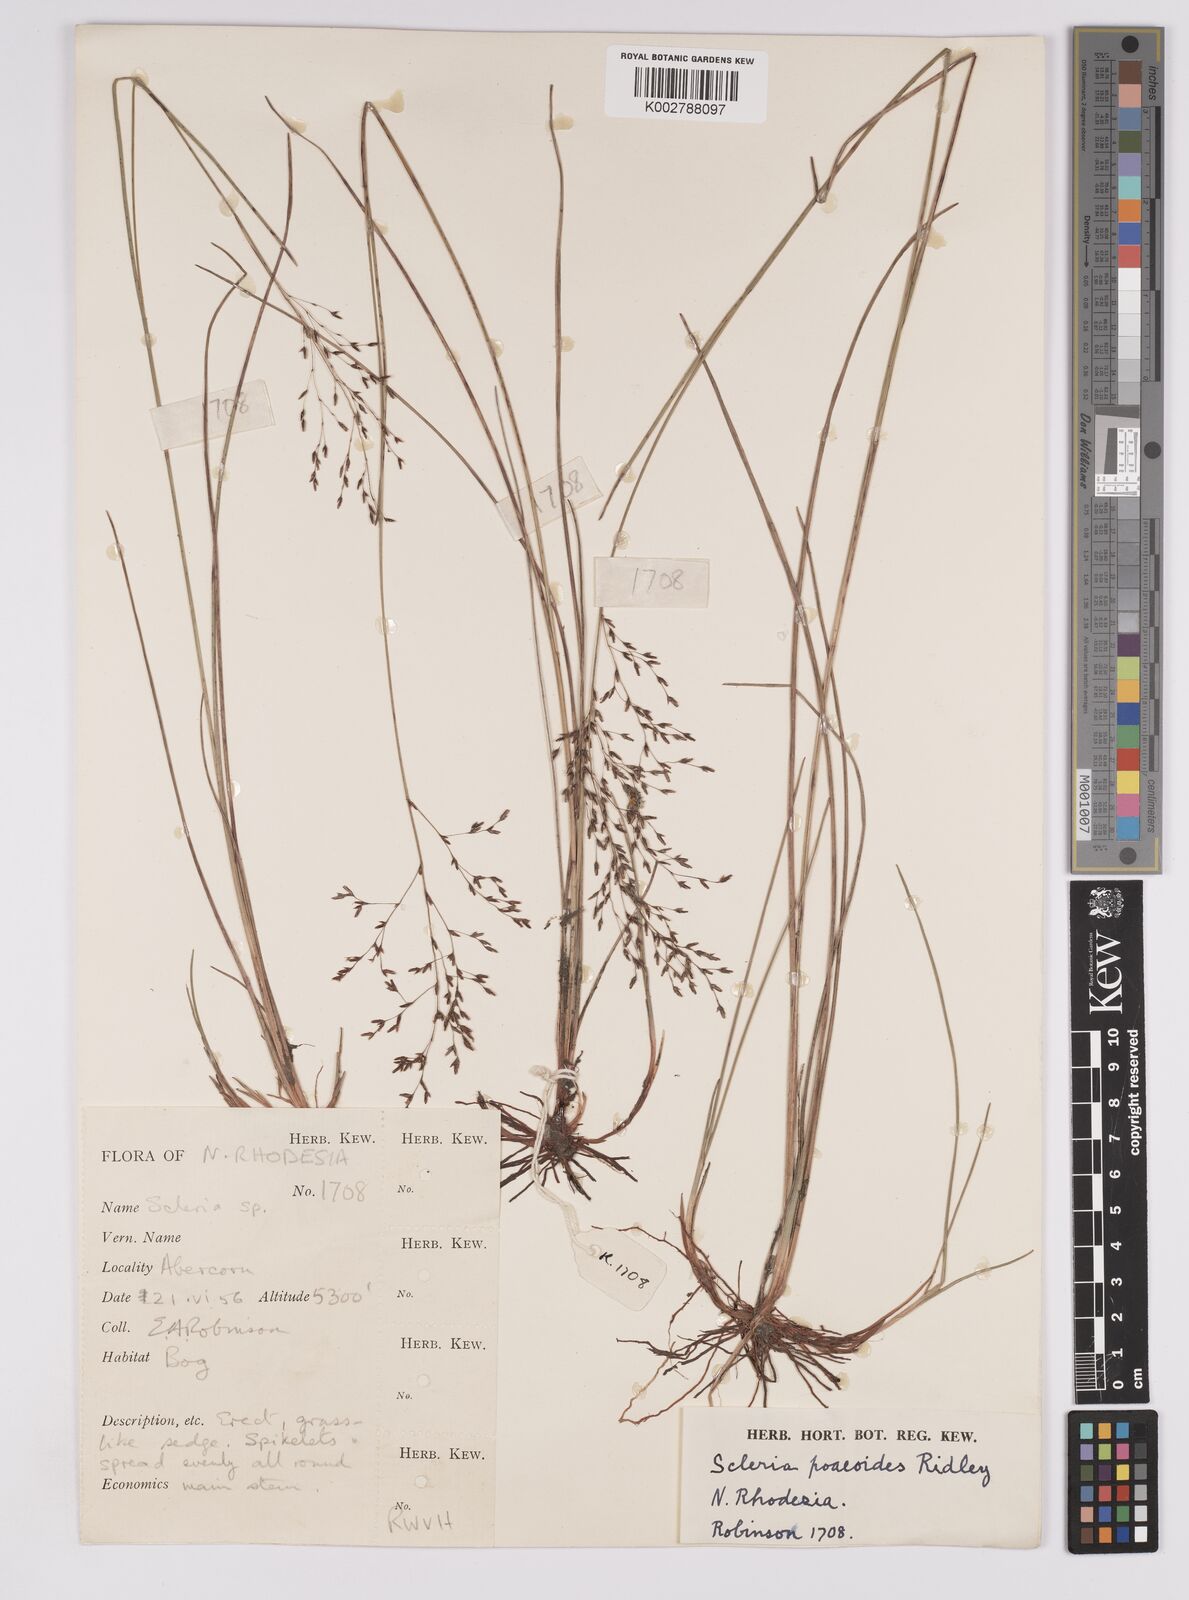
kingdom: Plantae
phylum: Tracheophyta
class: Liliopsida
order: Poales
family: Cyperaceae
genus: Scleria
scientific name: Scleria pooides
